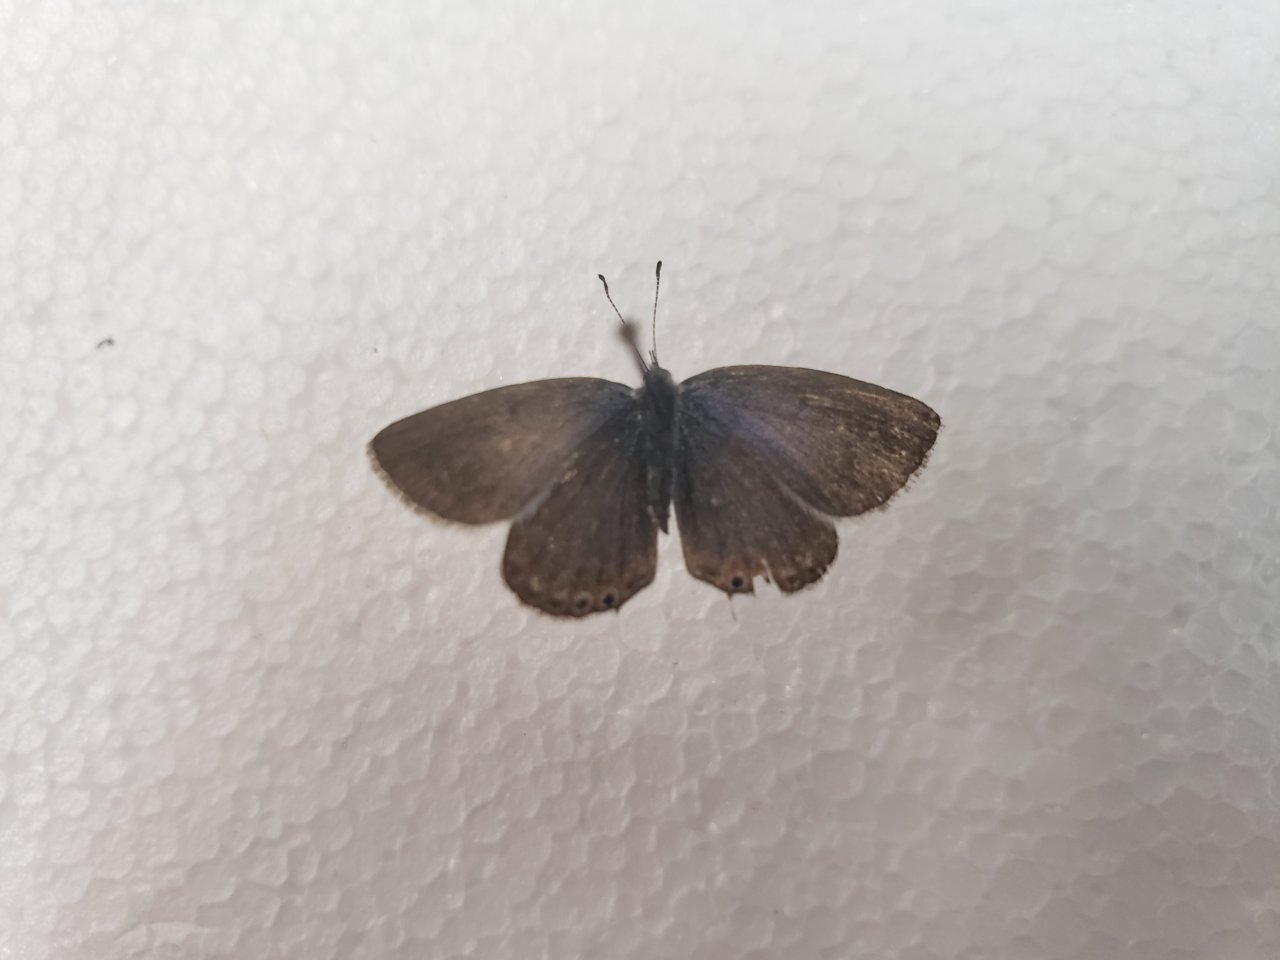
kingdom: Animalia
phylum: Arthropoda
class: Insecta
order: Lepidoptera
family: Lycaenidae
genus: Elkalyce
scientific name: Elkalyce amyntula
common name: Western Tailed-Blue
